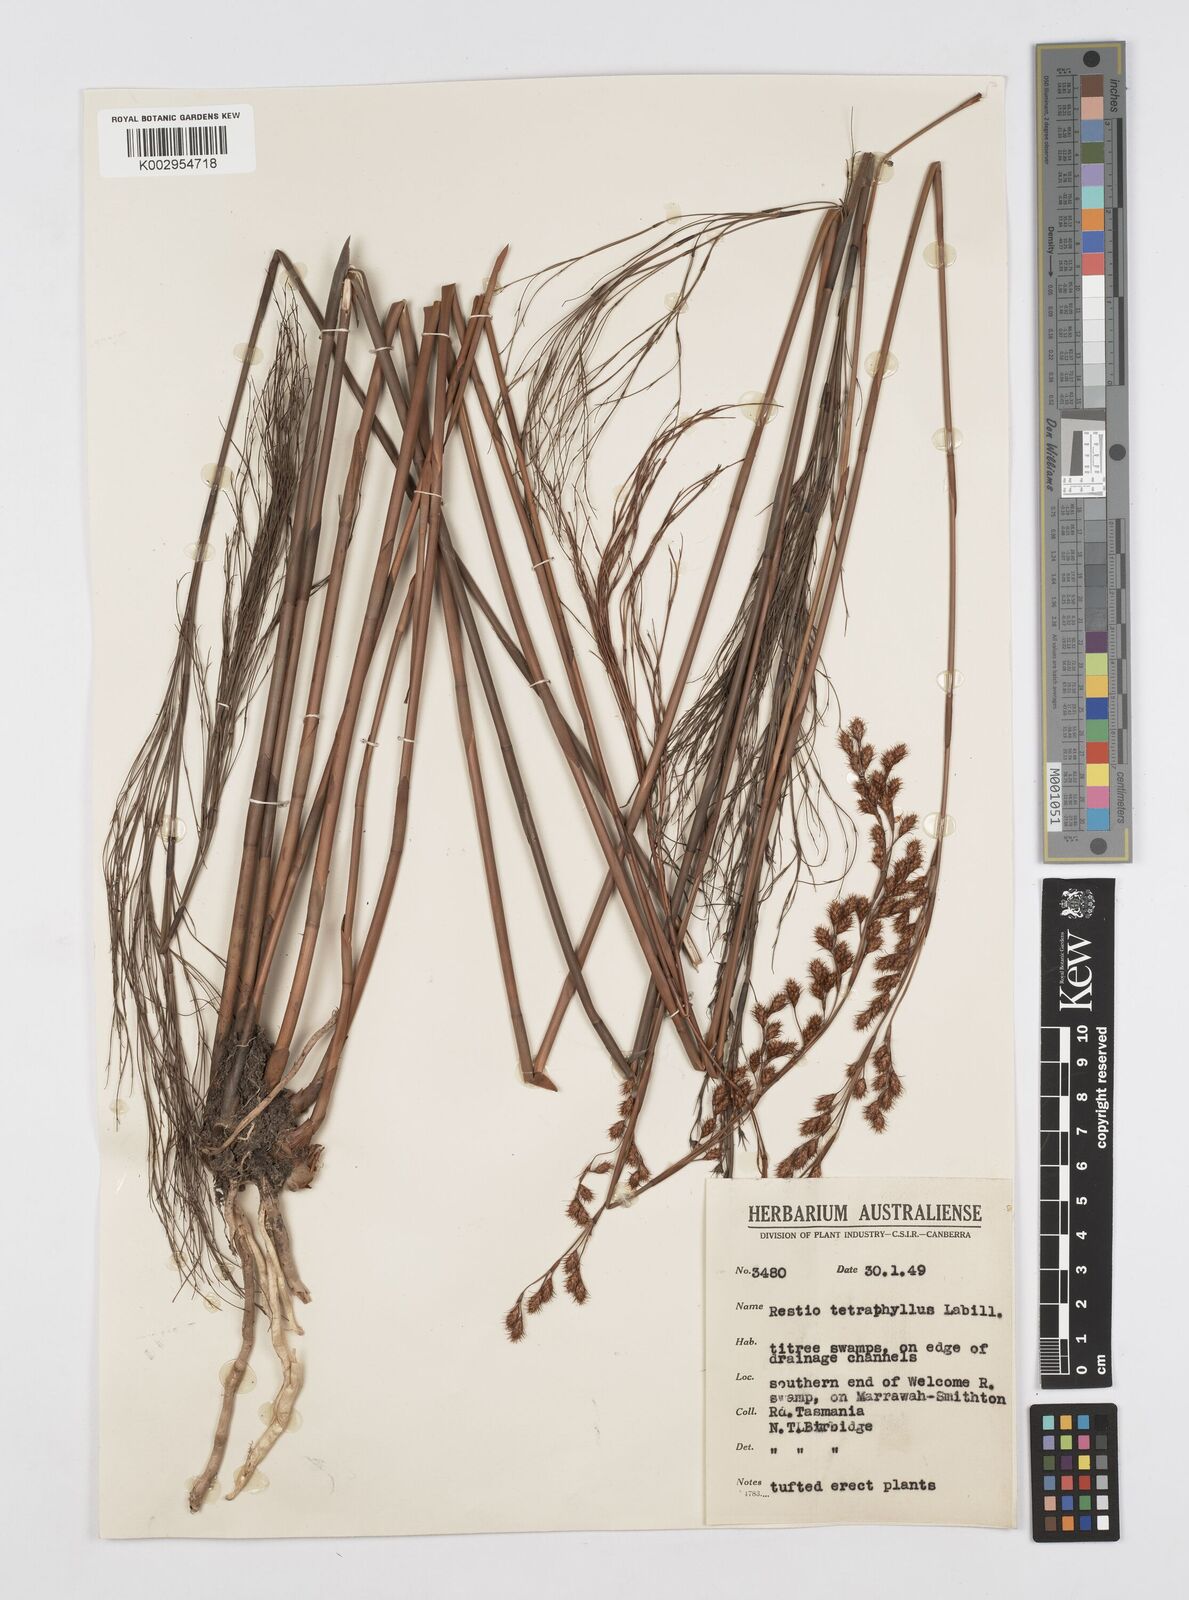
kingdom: Plantae
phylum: Tracheophyta
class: Liliopsida
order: Poales
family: Restionaceae
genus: Baloskion
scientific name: Baloskion tetraphyllum
